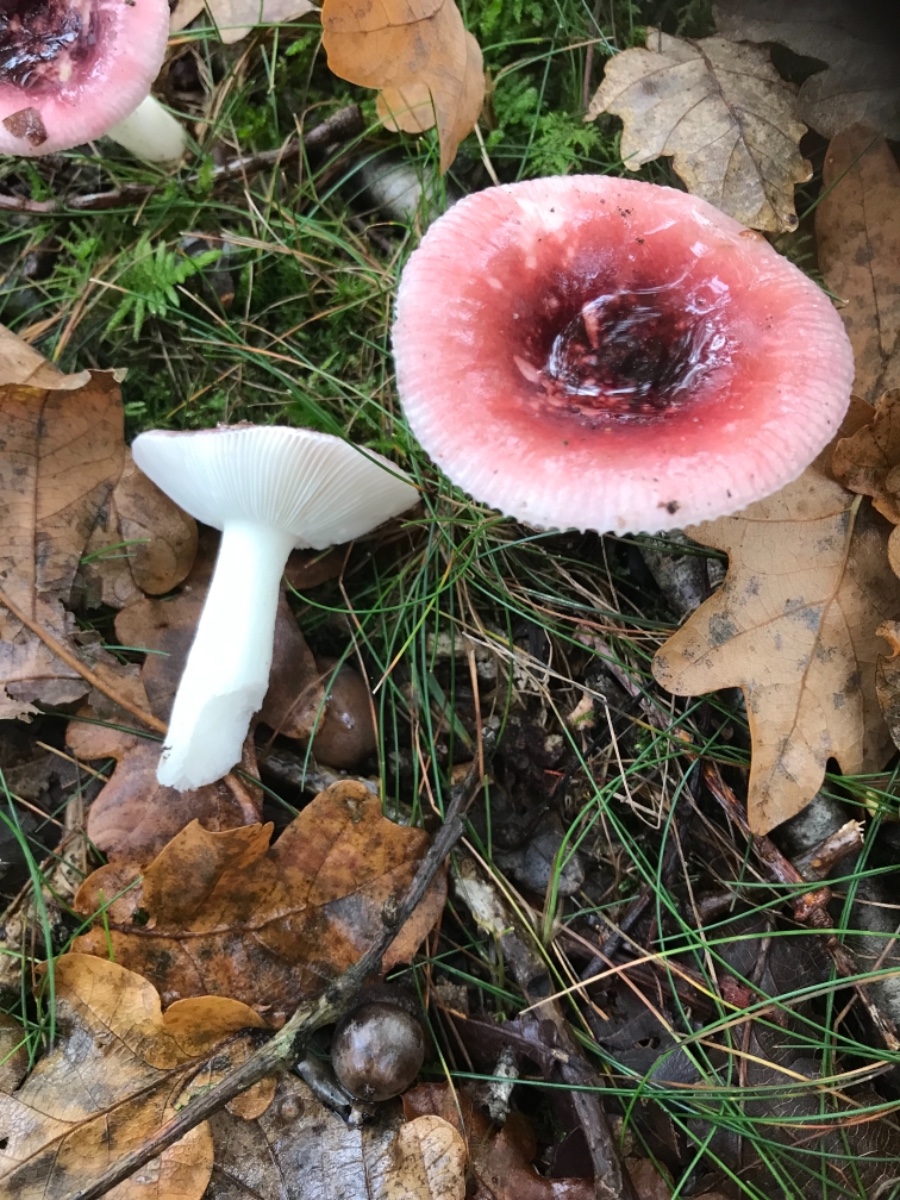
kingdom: Fungi
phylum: Basidiomycota
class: Agaricomycetes
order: Russulales
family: Russulaceae
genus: Russula
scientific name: Russula fragilis
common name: savbladet skørhat
